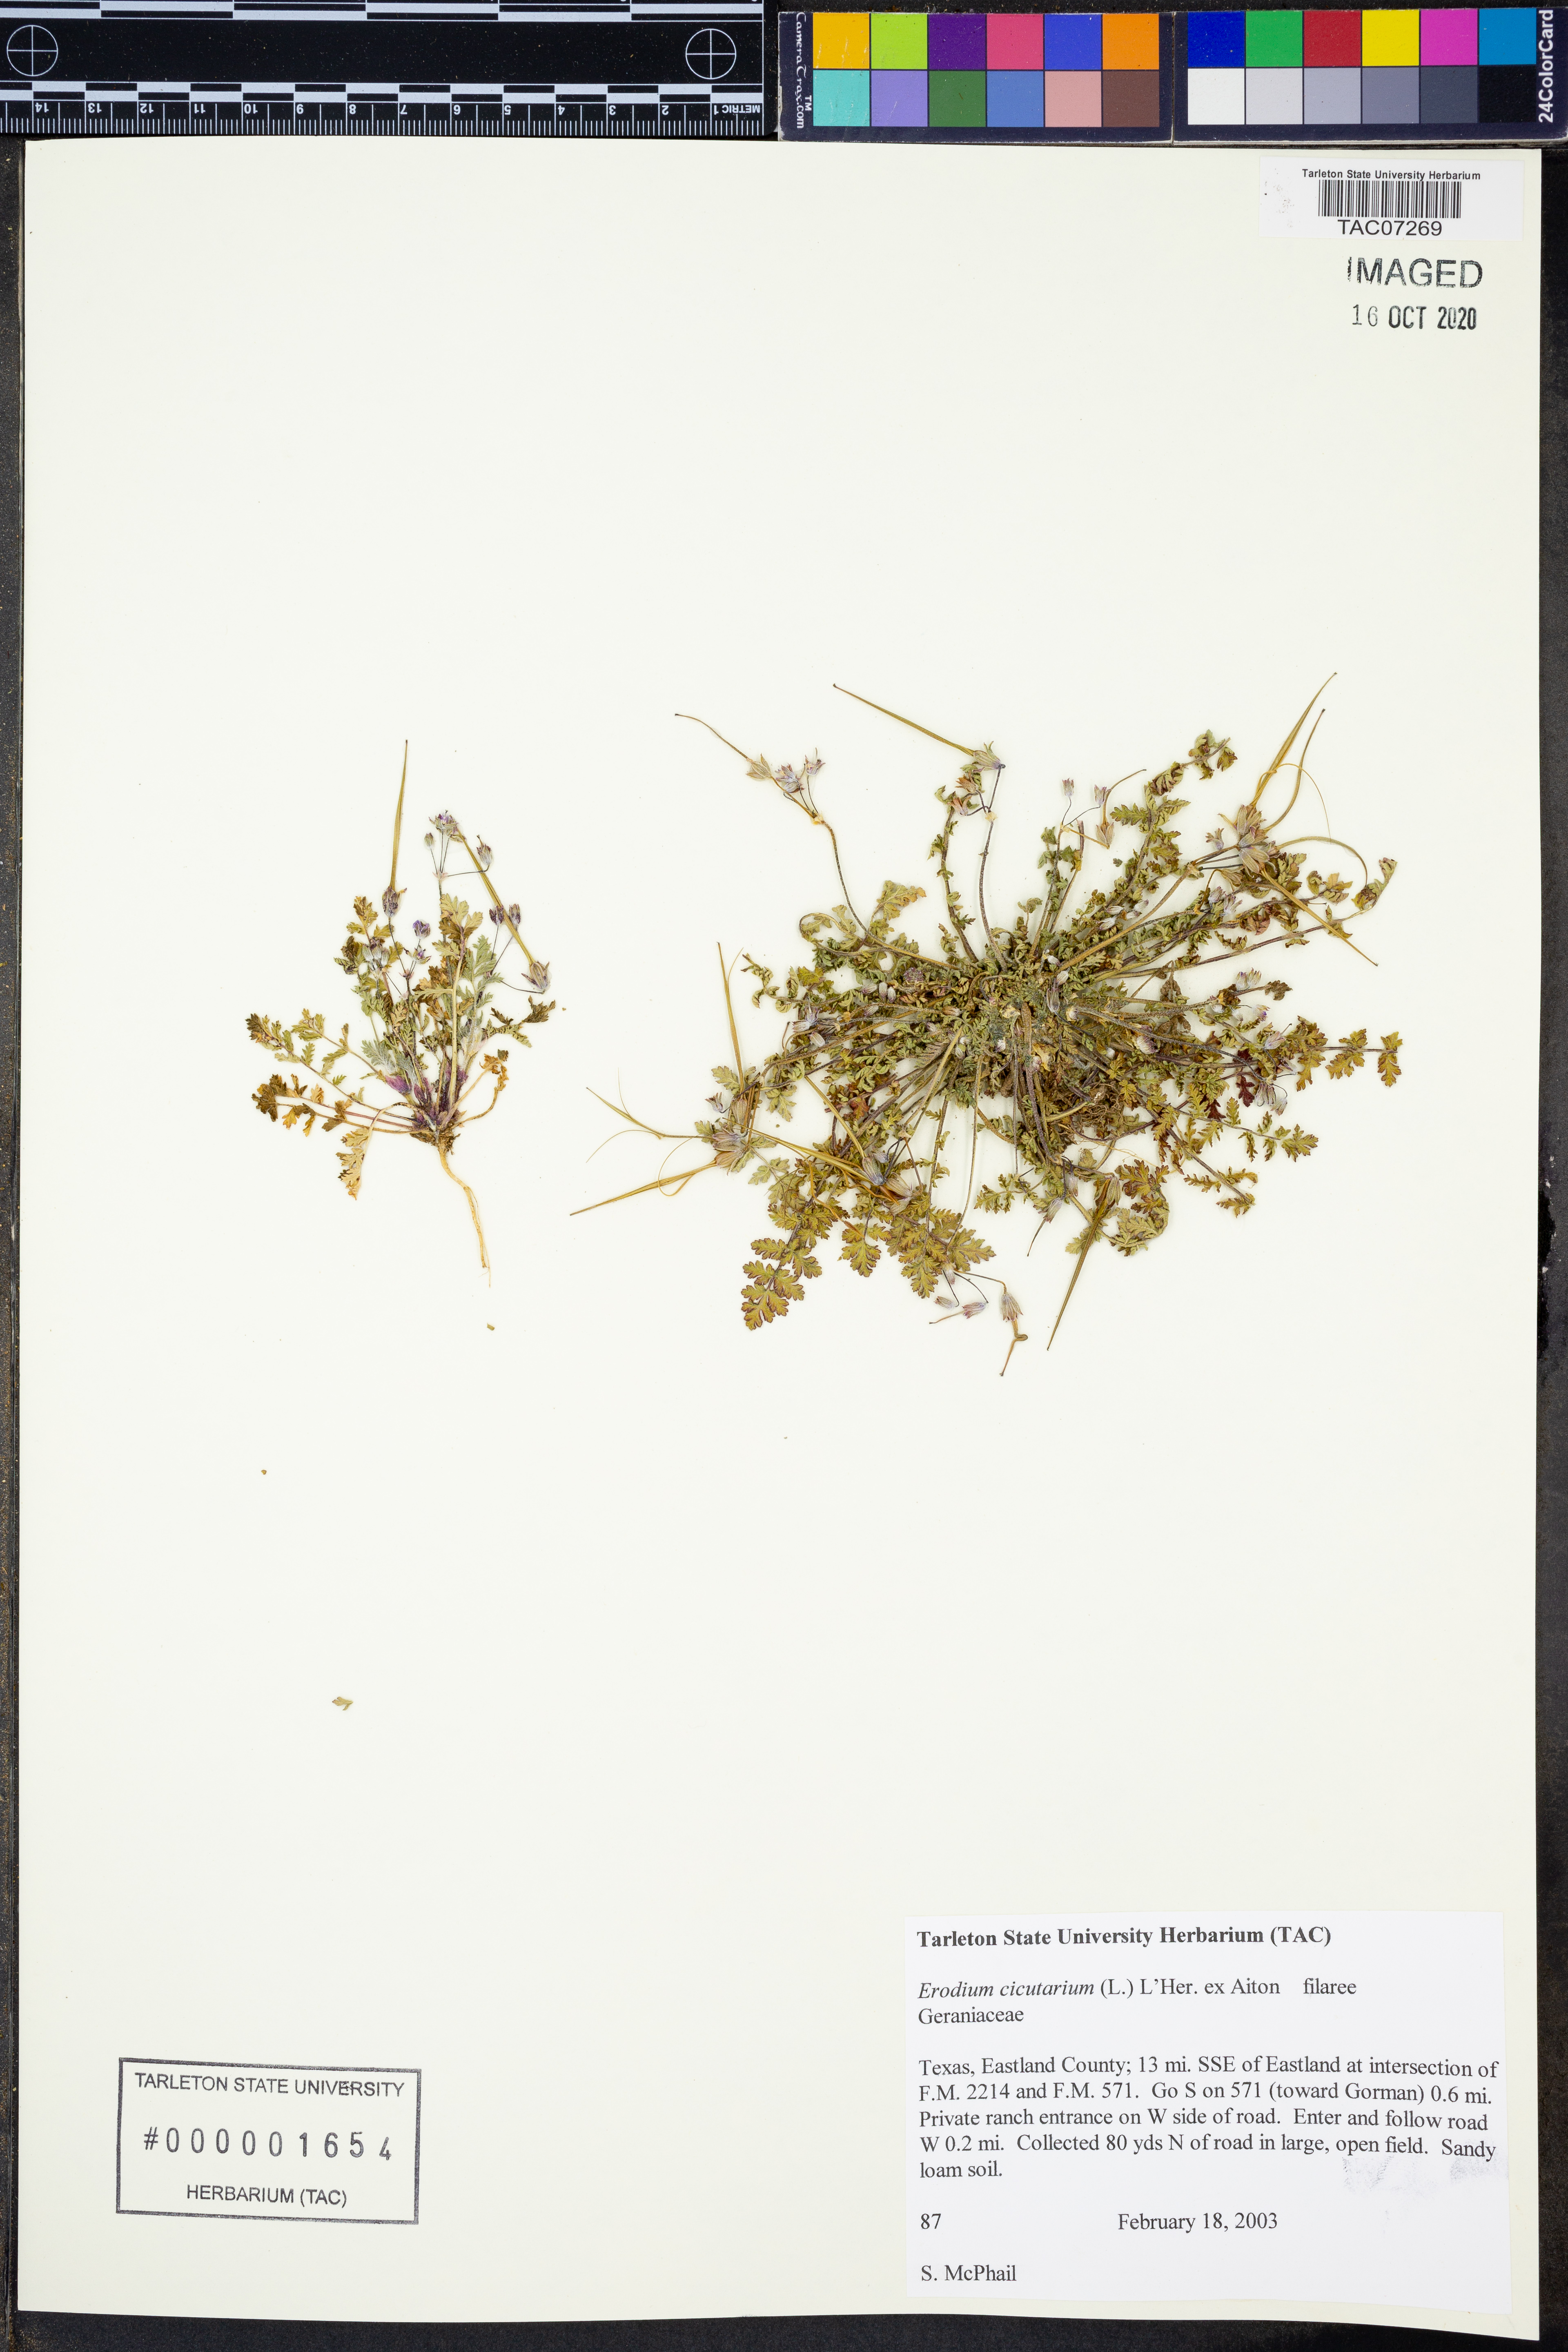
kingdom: Plantae
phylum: Tracheophyta
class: Magnoliopsida
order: Geraniales
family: Geraniaceae
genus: Erodium
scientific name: Erodium cicutarium
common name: Common stork's-bill
